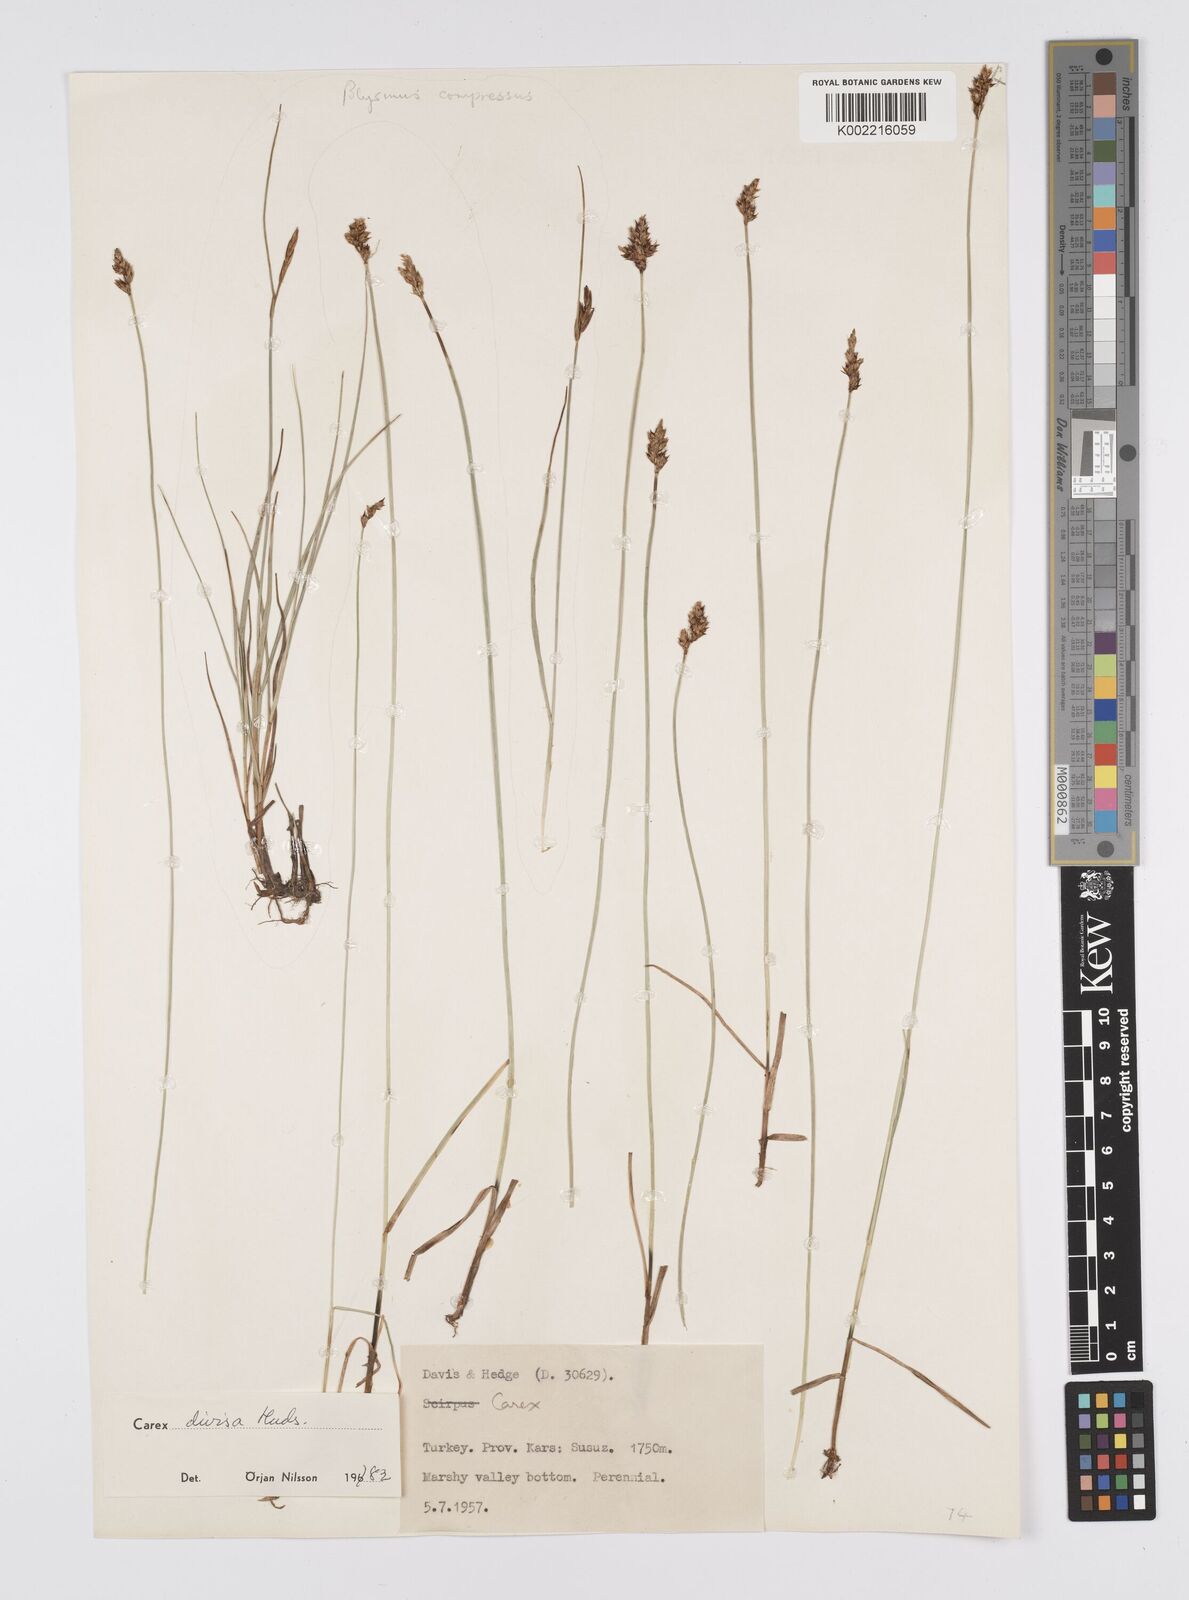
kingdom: Plantae
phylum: Tracheophyta
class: Liliopsida
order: Poales
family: Cyperaceae
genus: Carex
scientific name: Carex divisa
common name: Divided sedge
